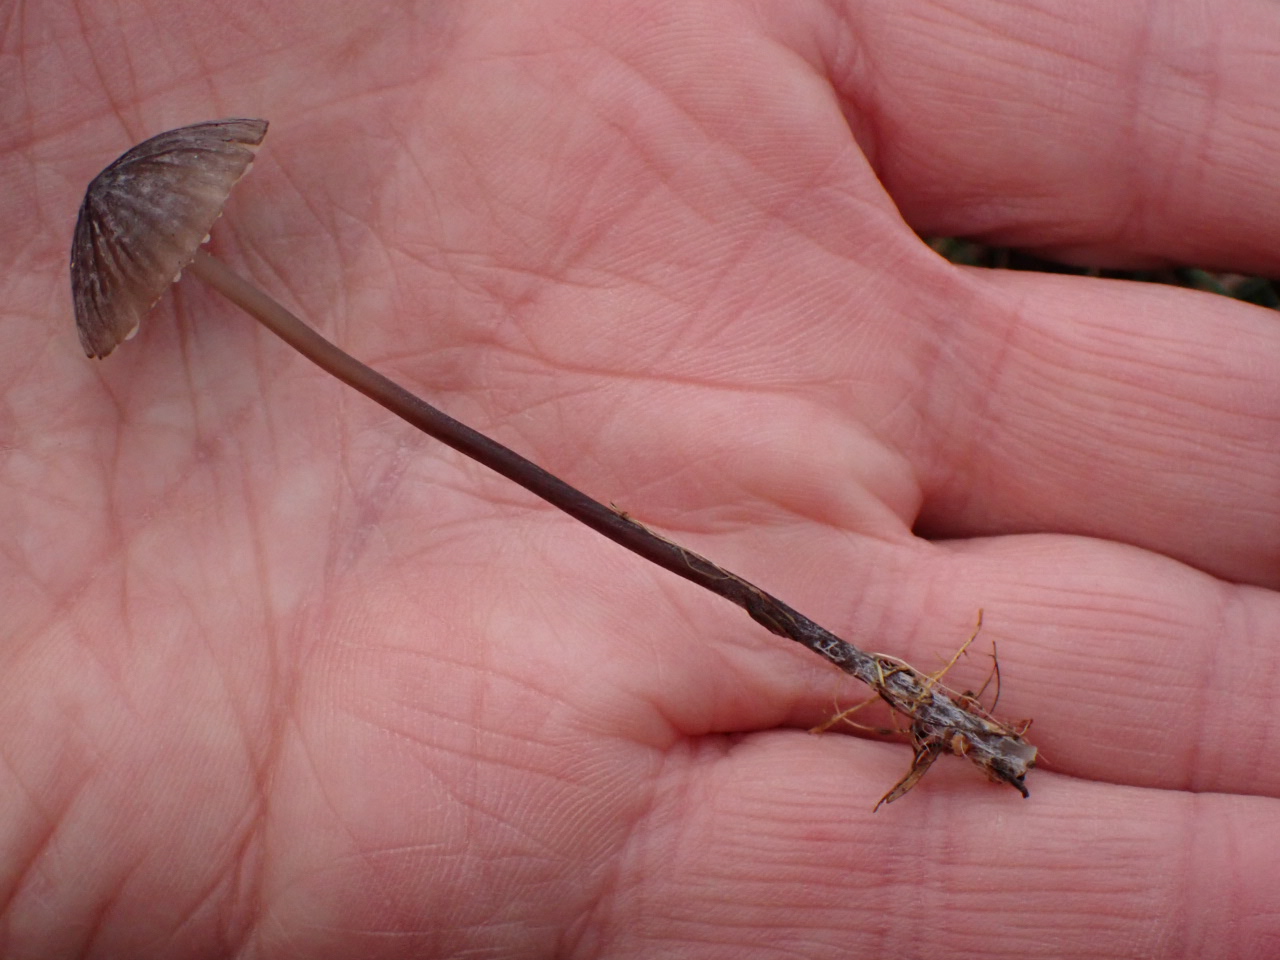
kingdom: Fungi
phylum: Basidiomycota
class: Agaricomycetes
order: Agaricales
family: Mycenaceae
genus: Mycena
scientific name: Mycena galopus
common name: hvidmælket huesvamp
